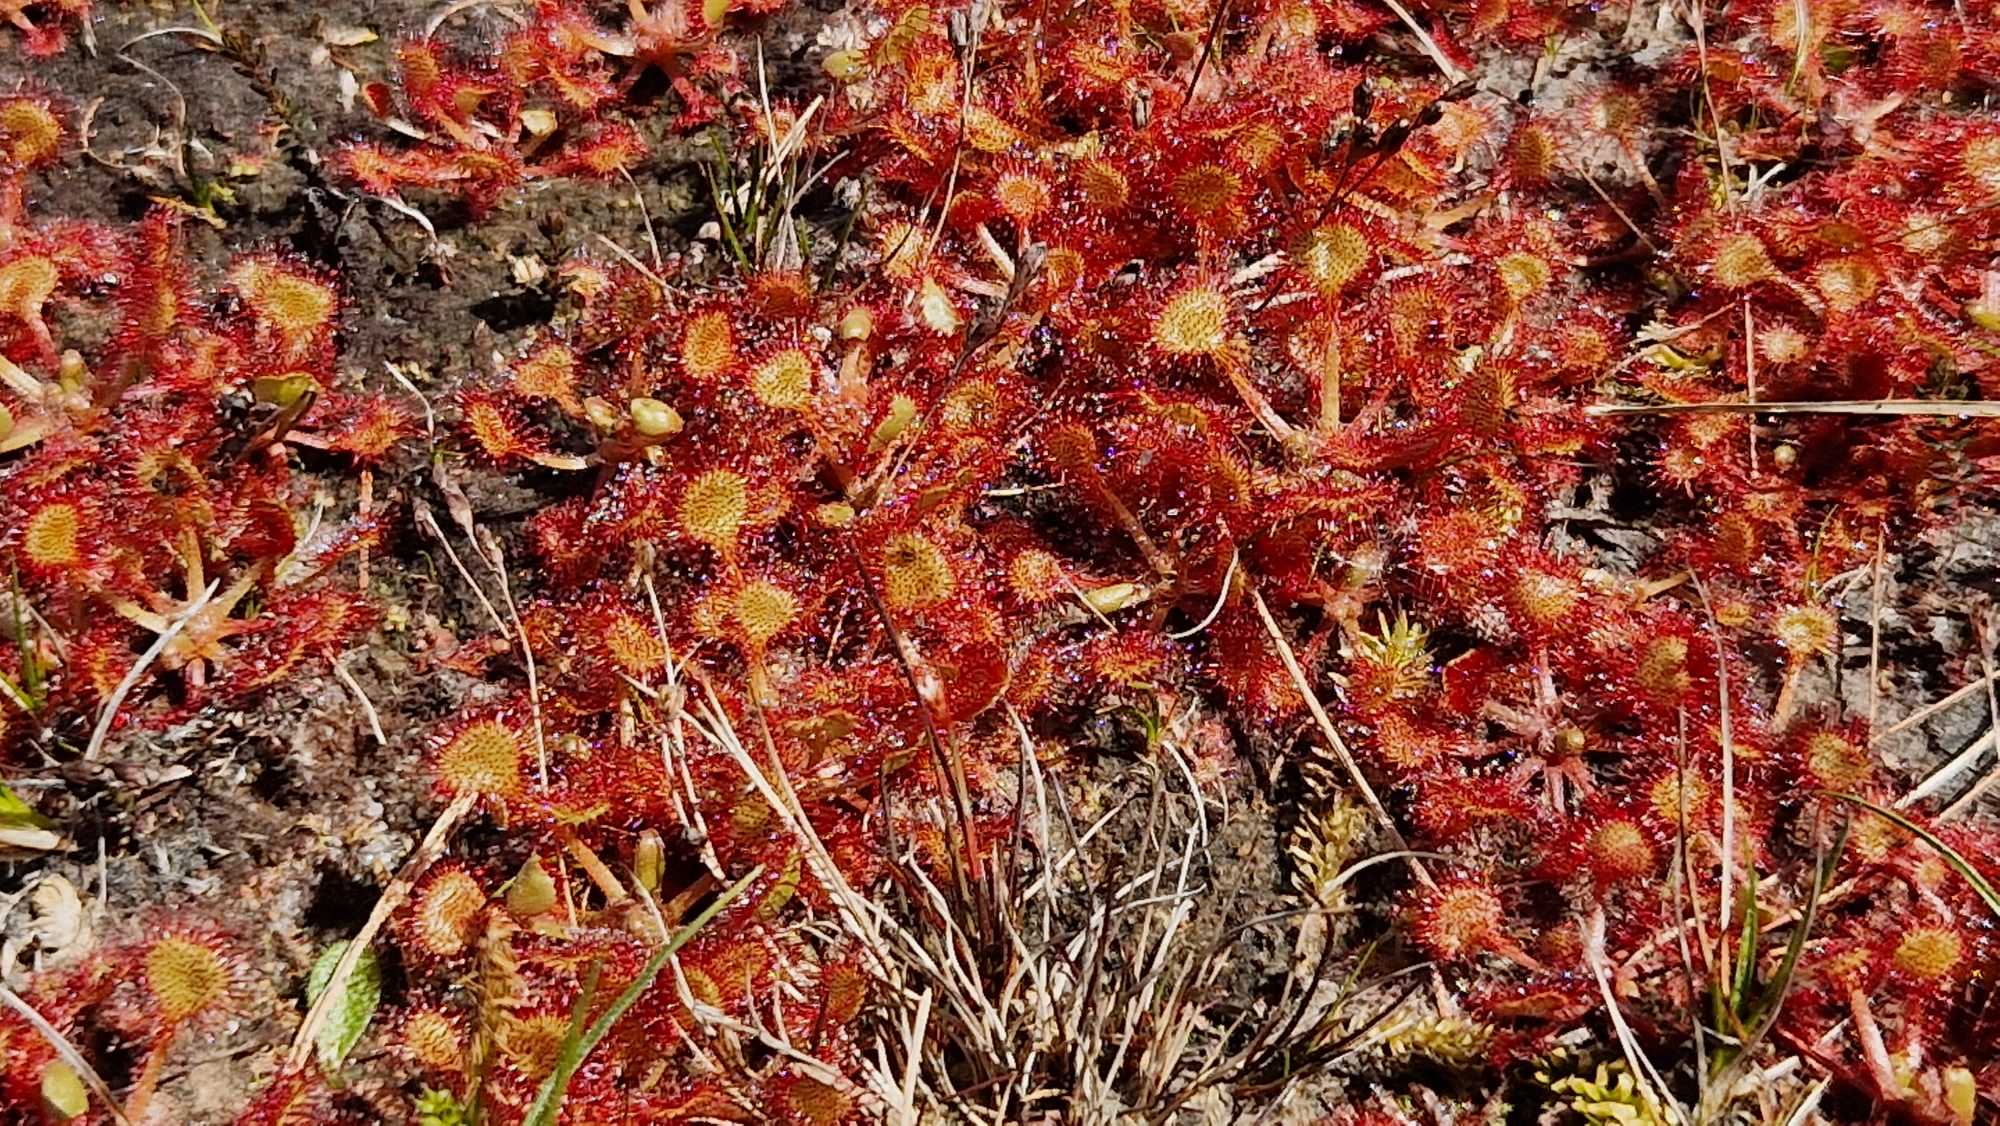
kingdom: Plantae
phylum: Tracheophyta
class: Magnoliopsida
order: Caryophyllales
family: Droseraceae
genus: Drosera
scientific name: Drosera rotundifolia
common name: Rundbladet soldug
